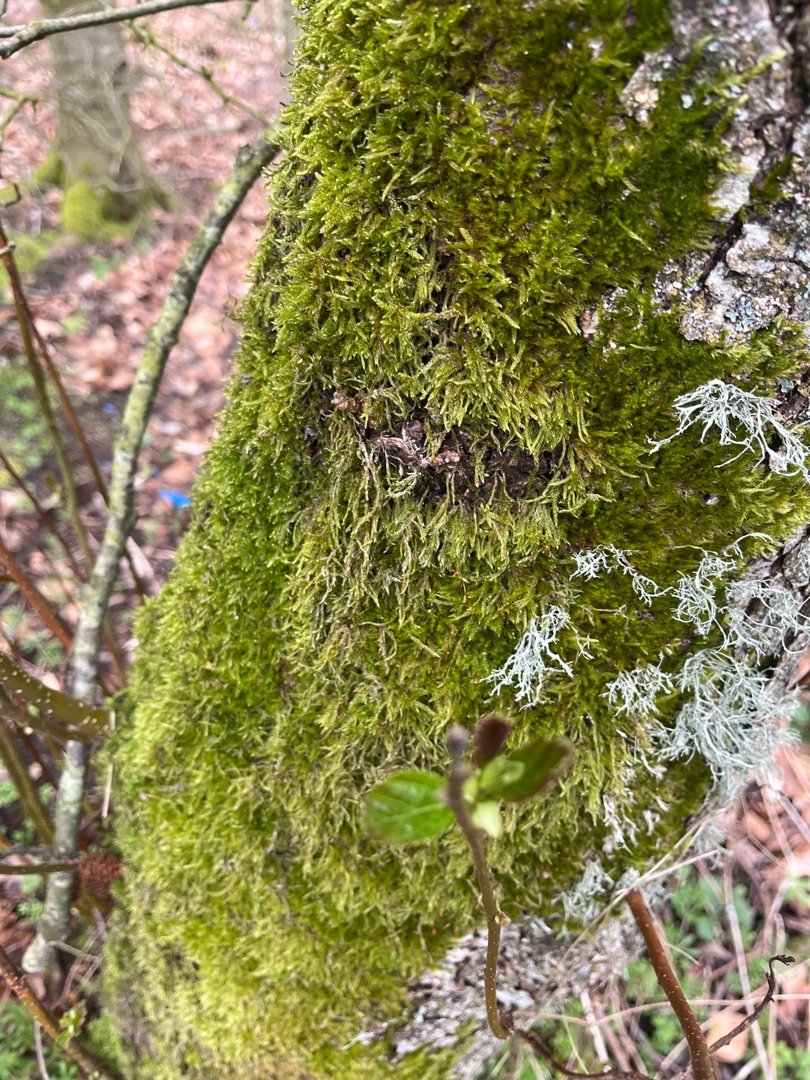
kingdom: Plantae
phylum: Bryophyta
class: Bryopsida
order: Hypnales
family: Hypnaceae
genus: Hypnum
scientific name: Hypnum cupressiforme
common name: Almindelig cypresmos
